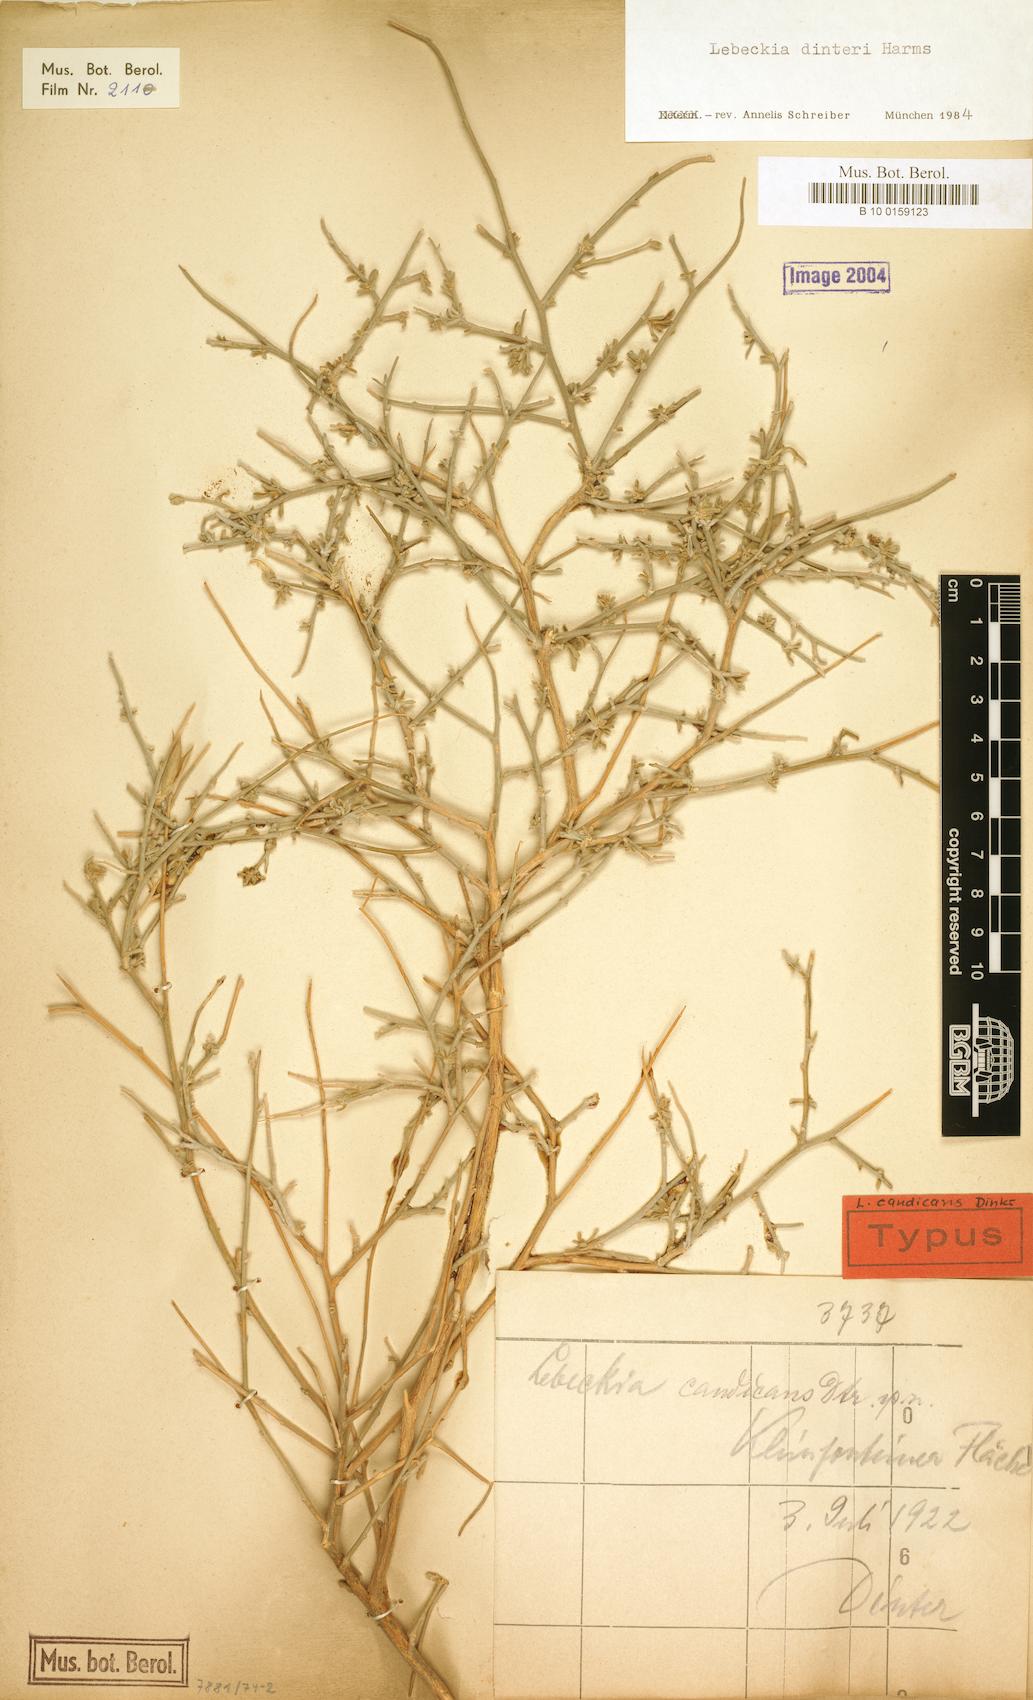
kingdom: Plantae
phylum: Tracheophyta
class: Magnoliopsida
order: Fabales
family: Fabaceae
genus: Calobota
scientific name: Calobota linearifolia
